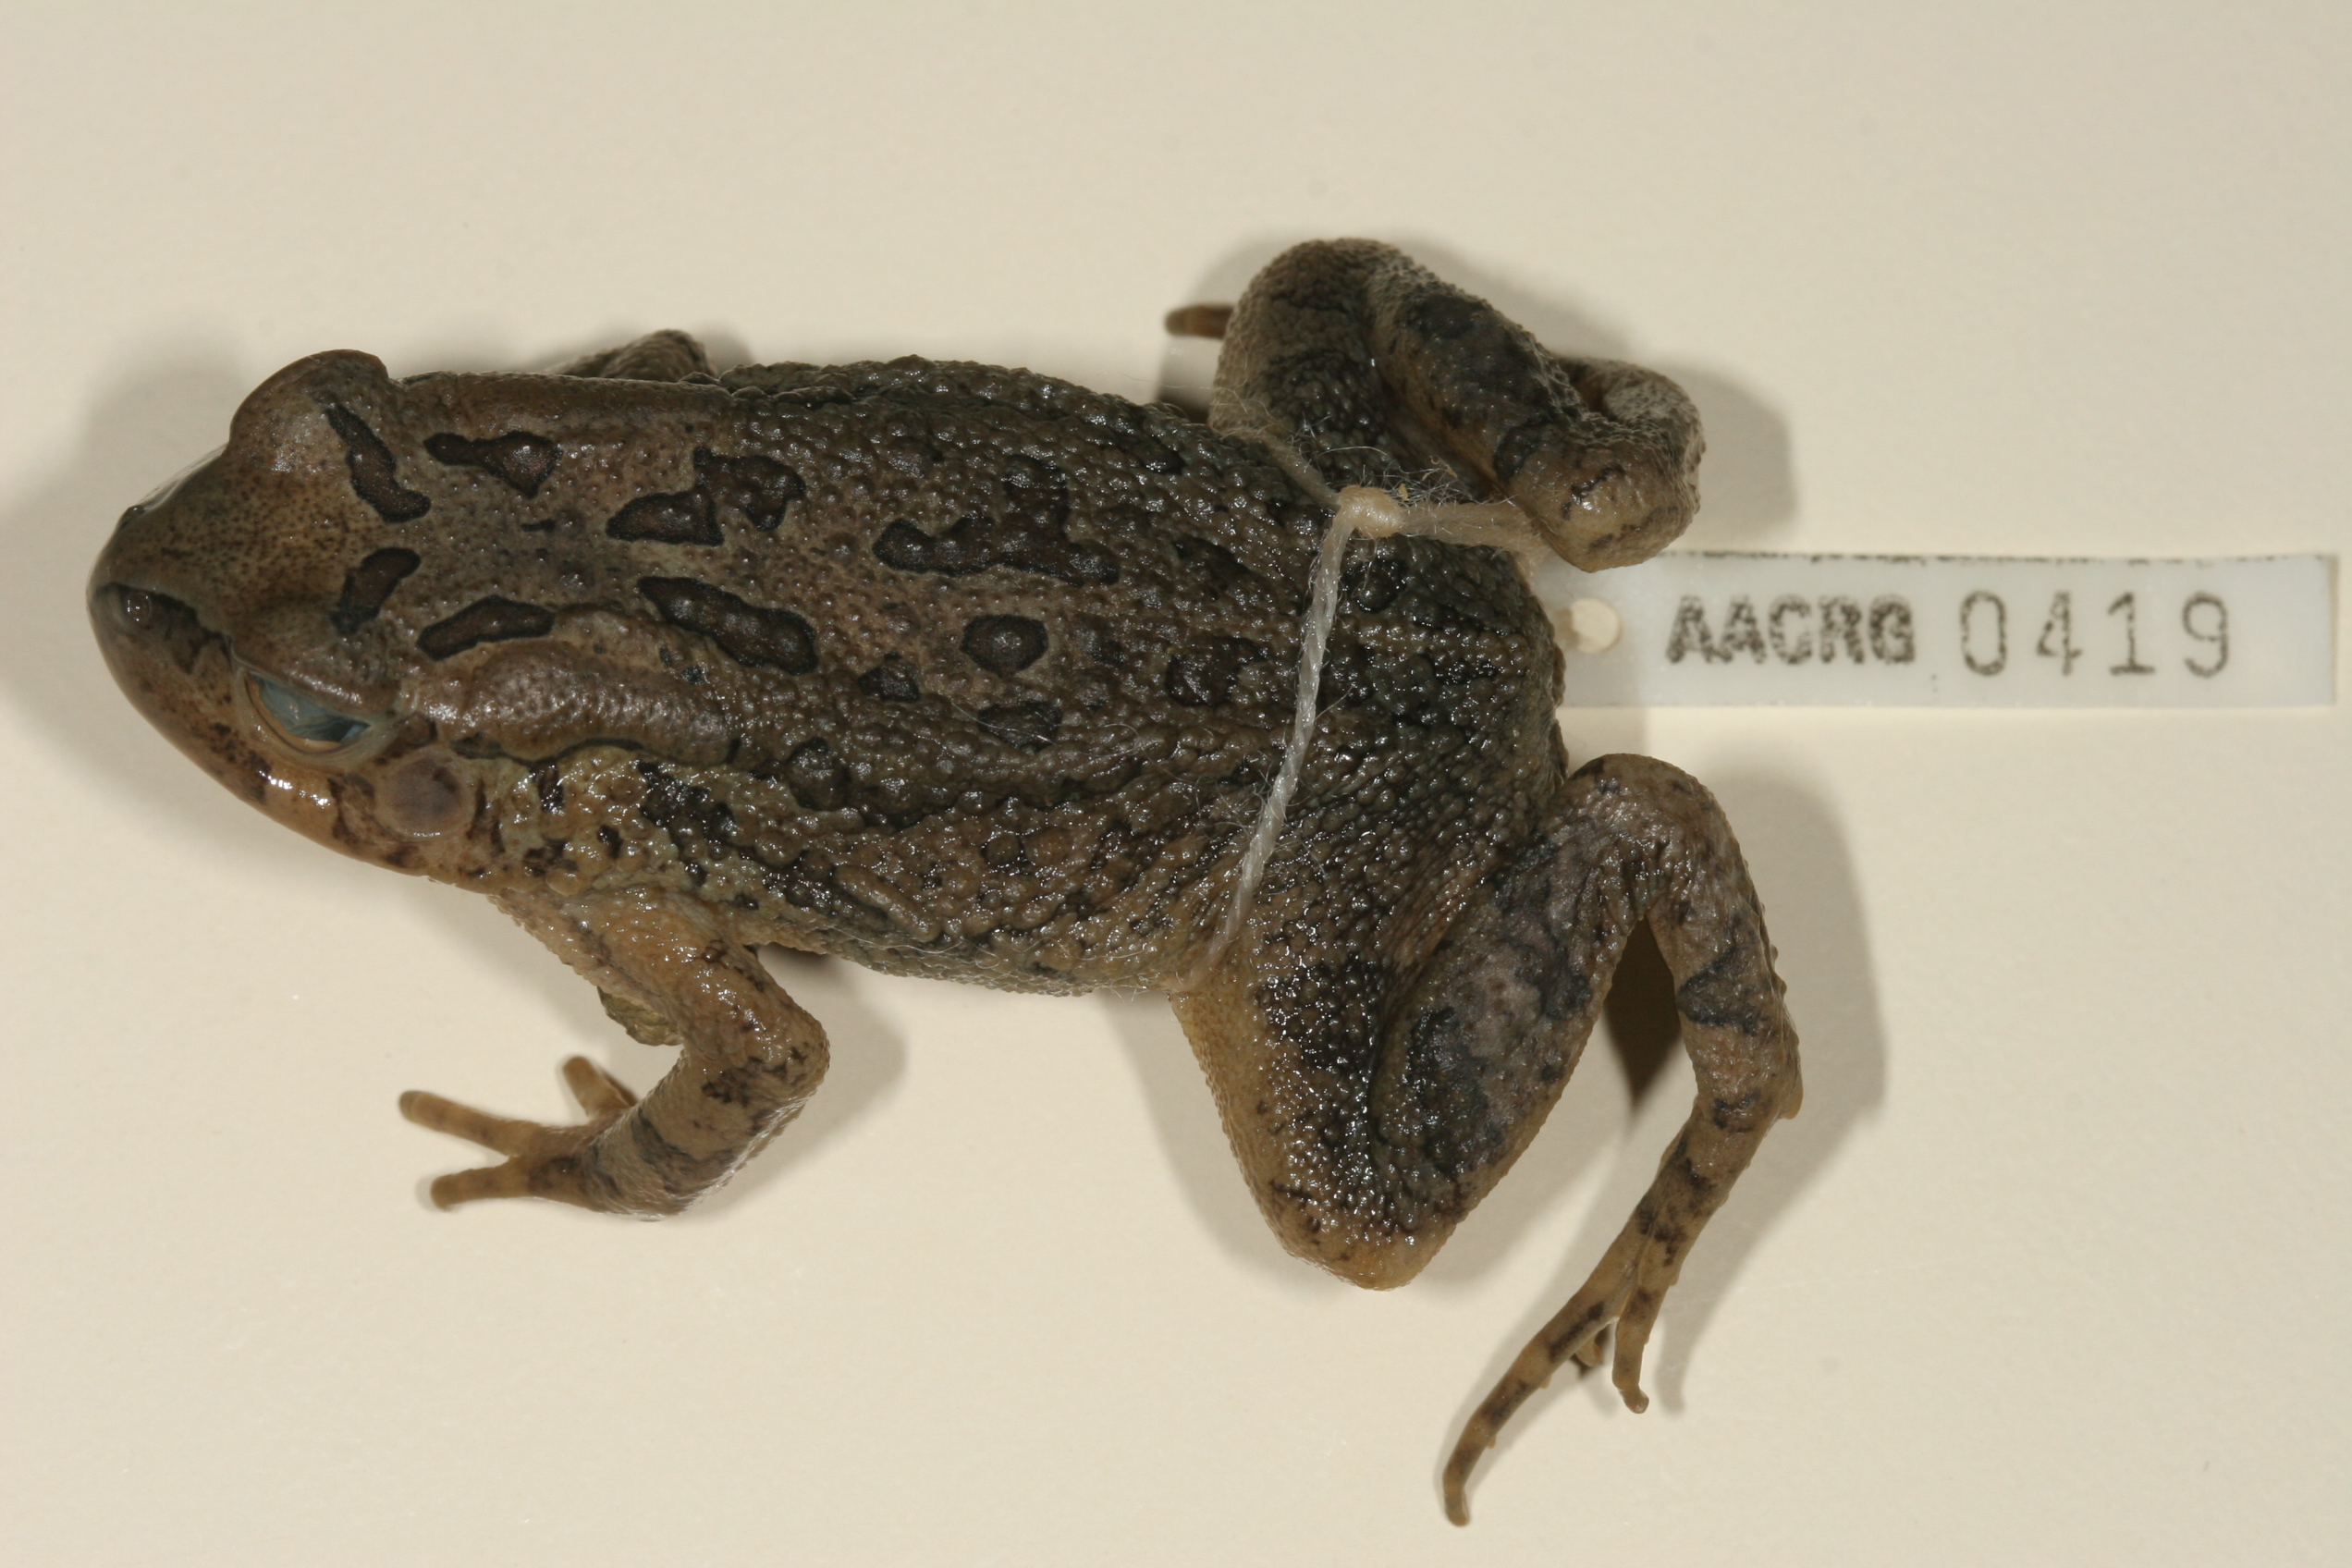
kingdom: Animalia
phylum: Chordata
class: Amphibia
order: Anura
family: Bufonidae
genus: Sclerophrys
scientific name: Sclerophrys garmani
